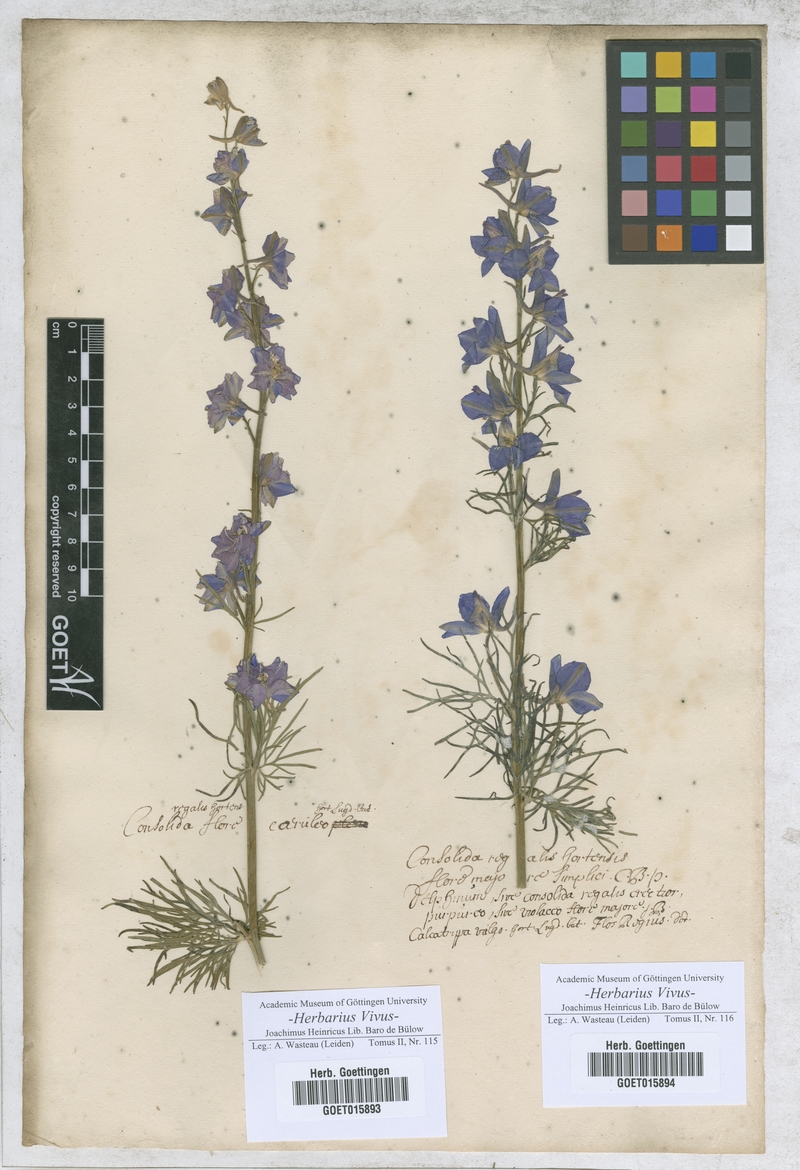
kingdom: Plantae
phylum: Tracheophyta
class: Magnoliopsida
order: Ranunculales
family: Ranunculaceae
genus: Delphinium
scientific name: Delphinium ajacis
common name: Doubtful knight's-spur
